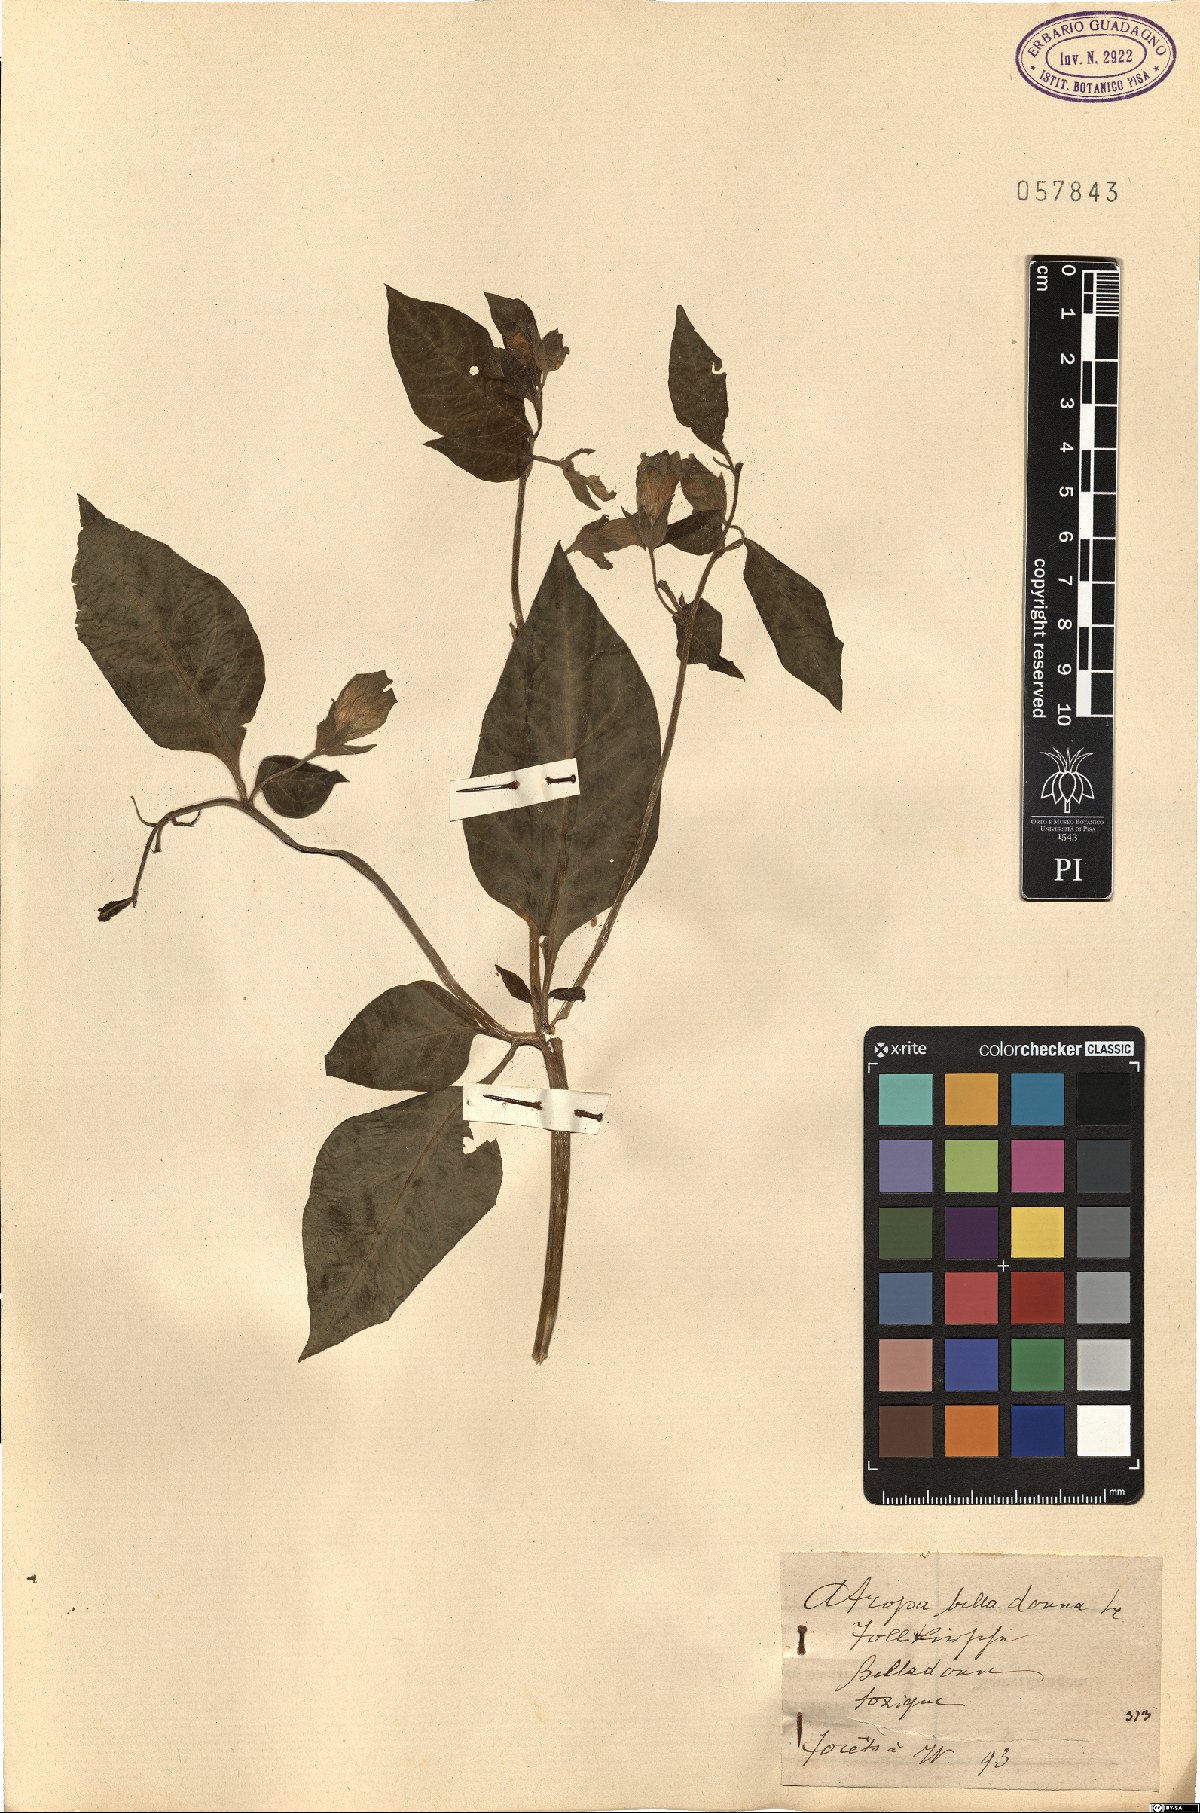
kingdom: Plantae
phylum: Tracheophyta
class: Magnoliopsida
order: Solanales
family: Solanaceae
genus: Atropa
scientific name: Atropa belladonna
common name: Deadly nightshade
